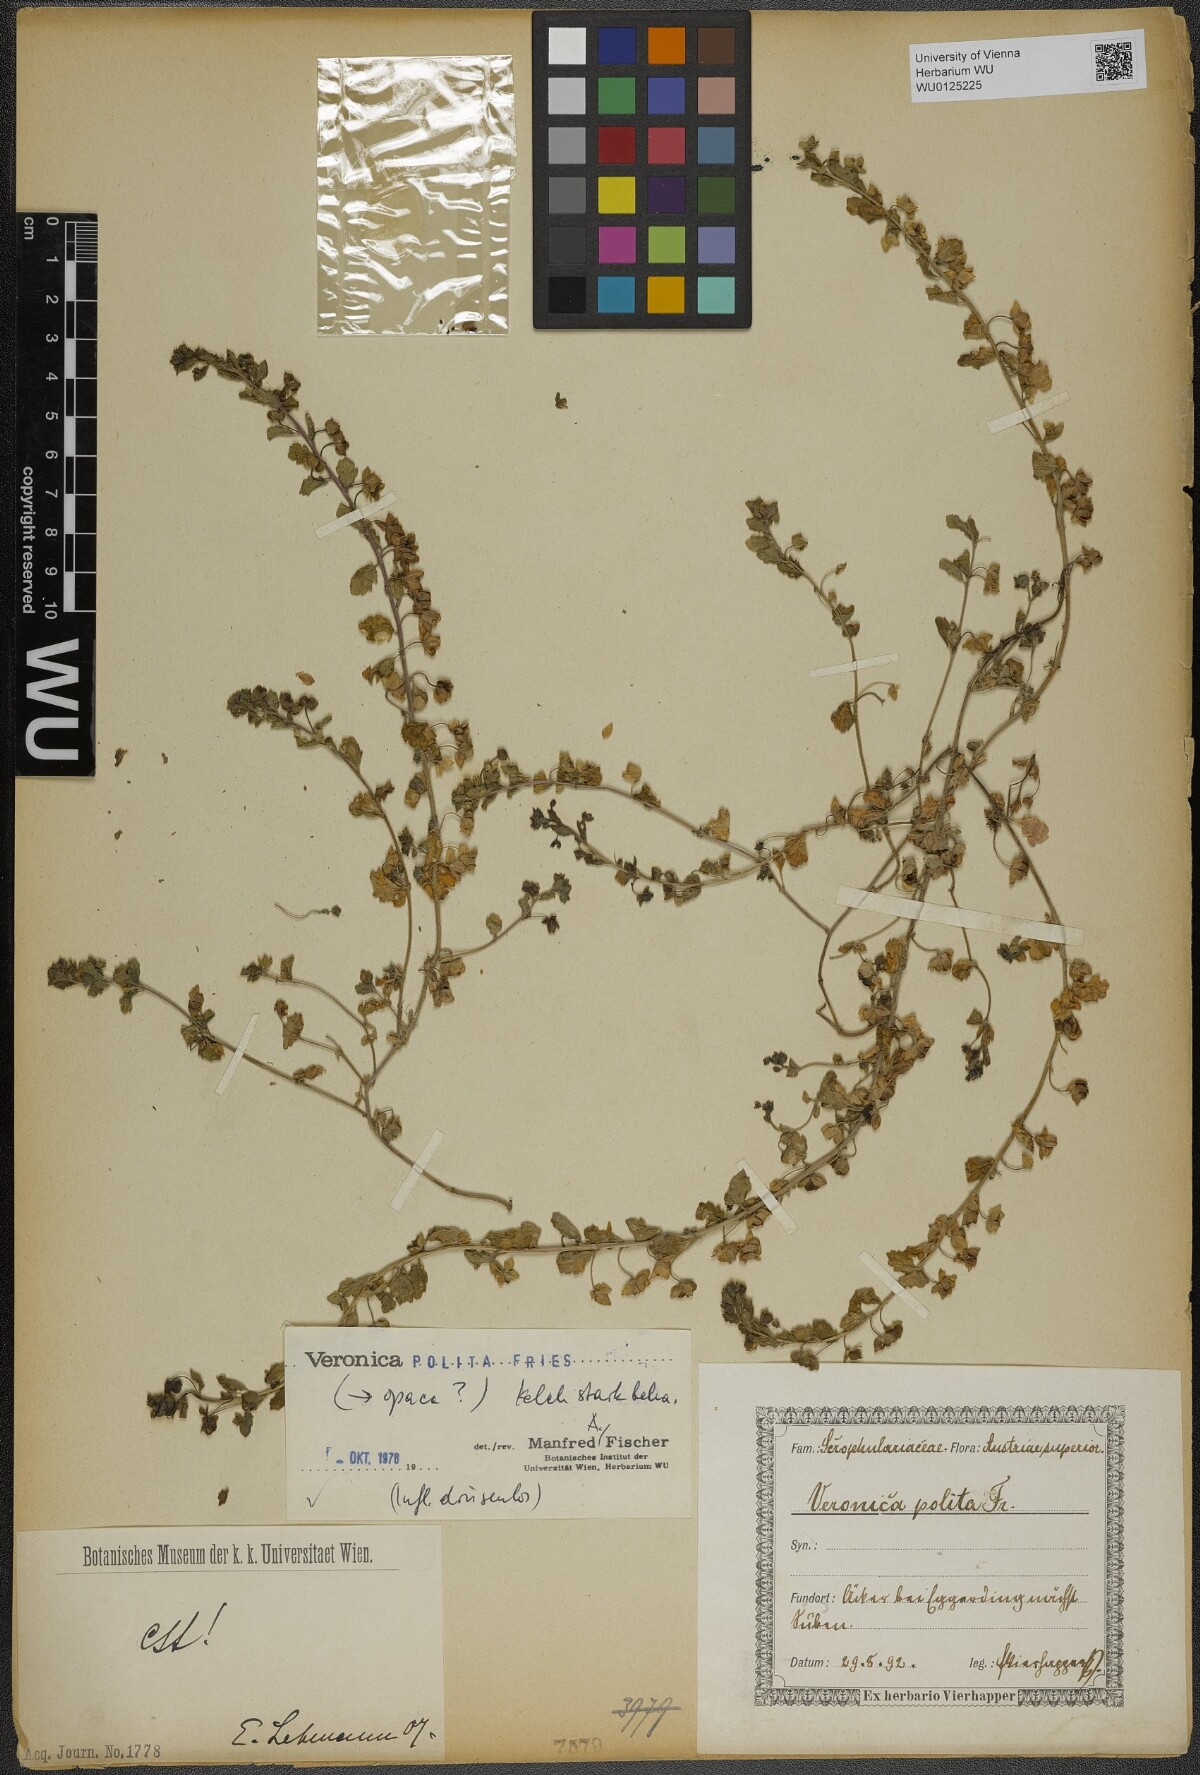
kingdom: Plantae
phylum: Tracheophyta
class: Magnoliopsida
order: Lamiales
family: Plantaginaceae
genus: Veronica
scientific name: Veronica polita
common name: Grey field-speedwell
